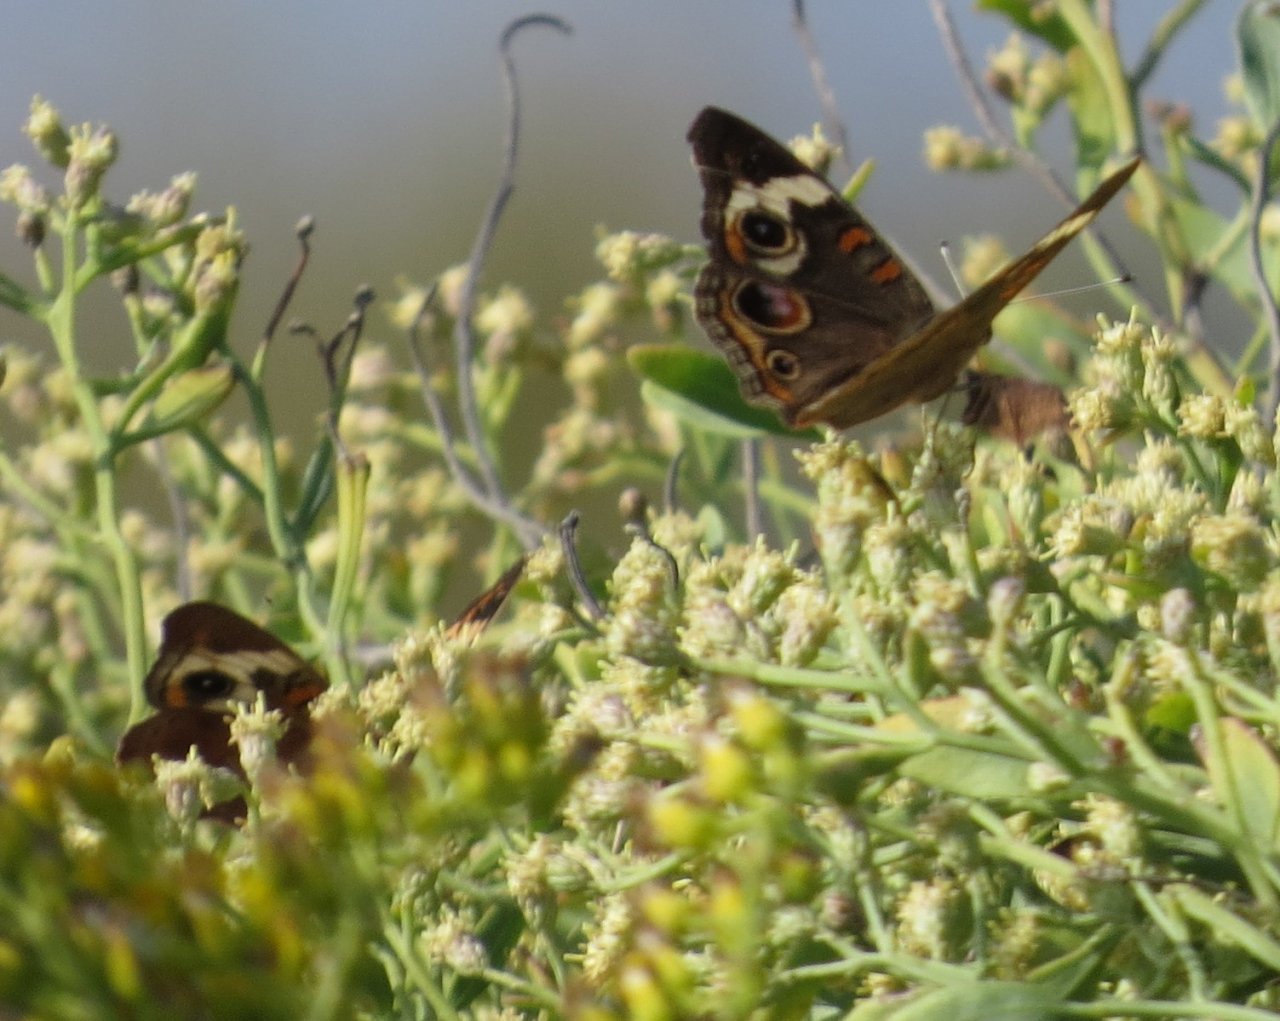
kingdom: Animalia
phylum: Arthropoda
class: Insecta
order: Lepidoptera
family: Nymphalidae
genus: Junonia
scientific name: Junonia coenia
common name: Common Buckeye
